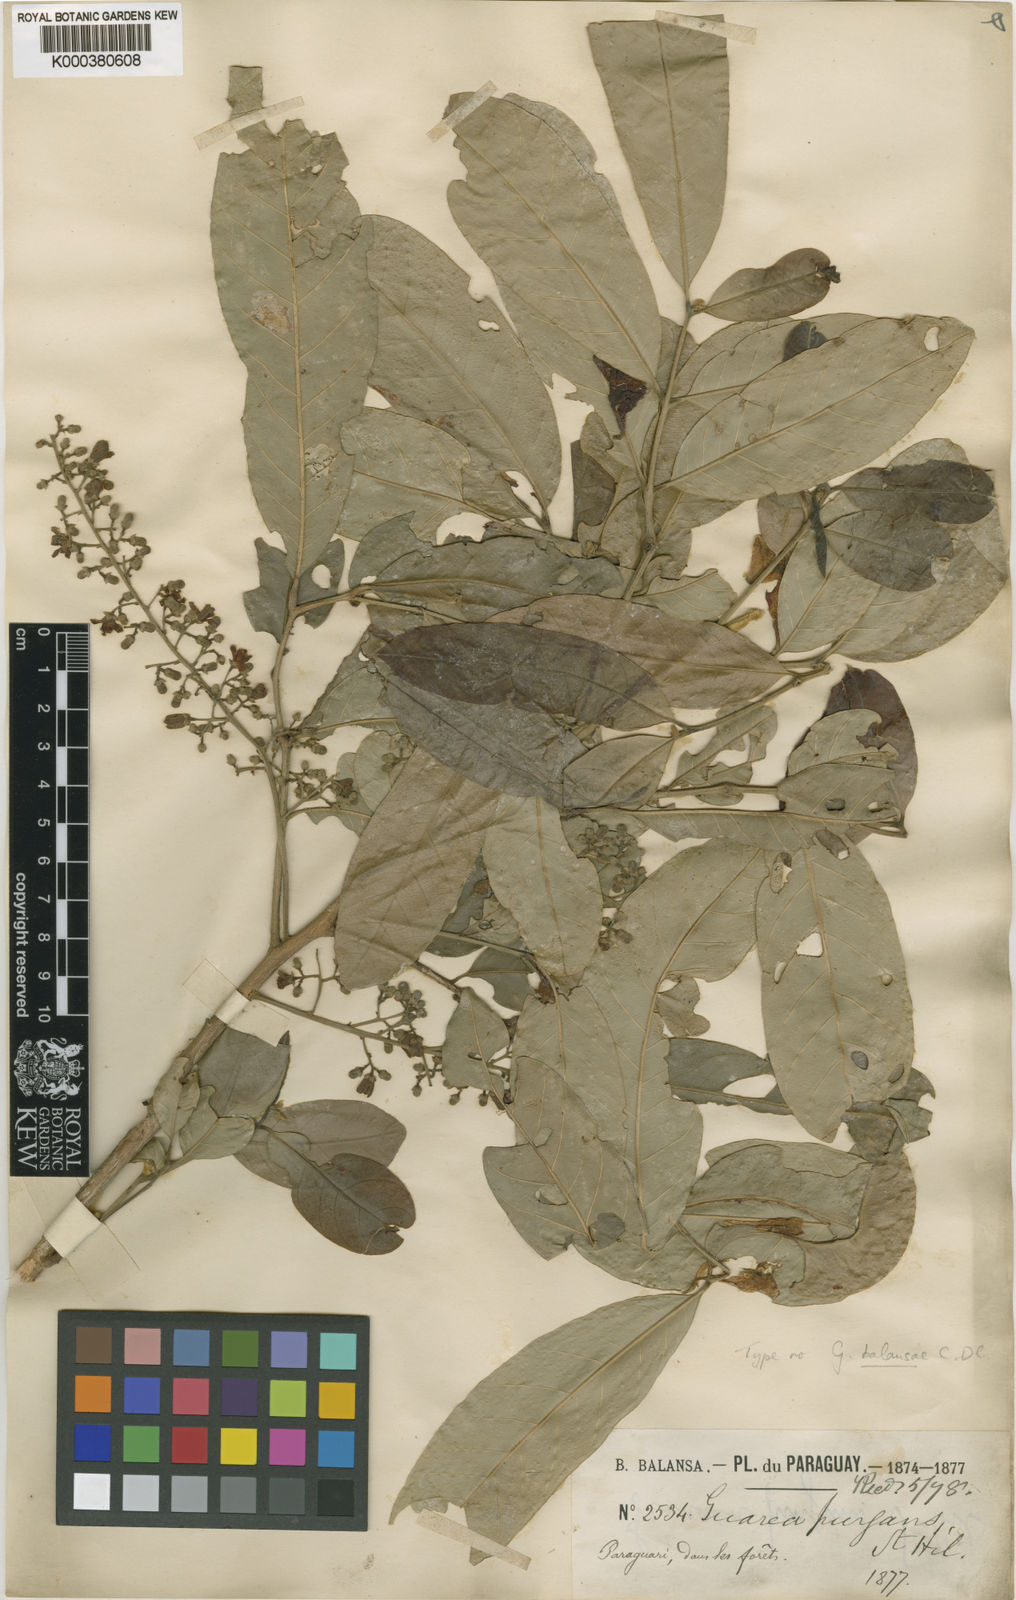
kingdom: Plantae
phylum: Tracheophyta
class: Magnoliopsida
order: Sapindales
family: Meliaceae
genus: Guarea
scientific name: Guarea macrophylla
